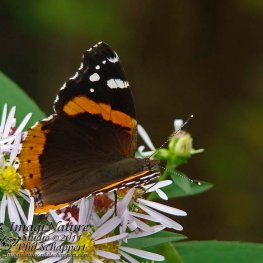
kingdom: Animalia
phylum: Arthropoda
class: Insecta
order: Lepidoptera
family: Nymphalidae
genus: Vanessa
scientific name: Vanessa atalanta
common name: Red Admiral
